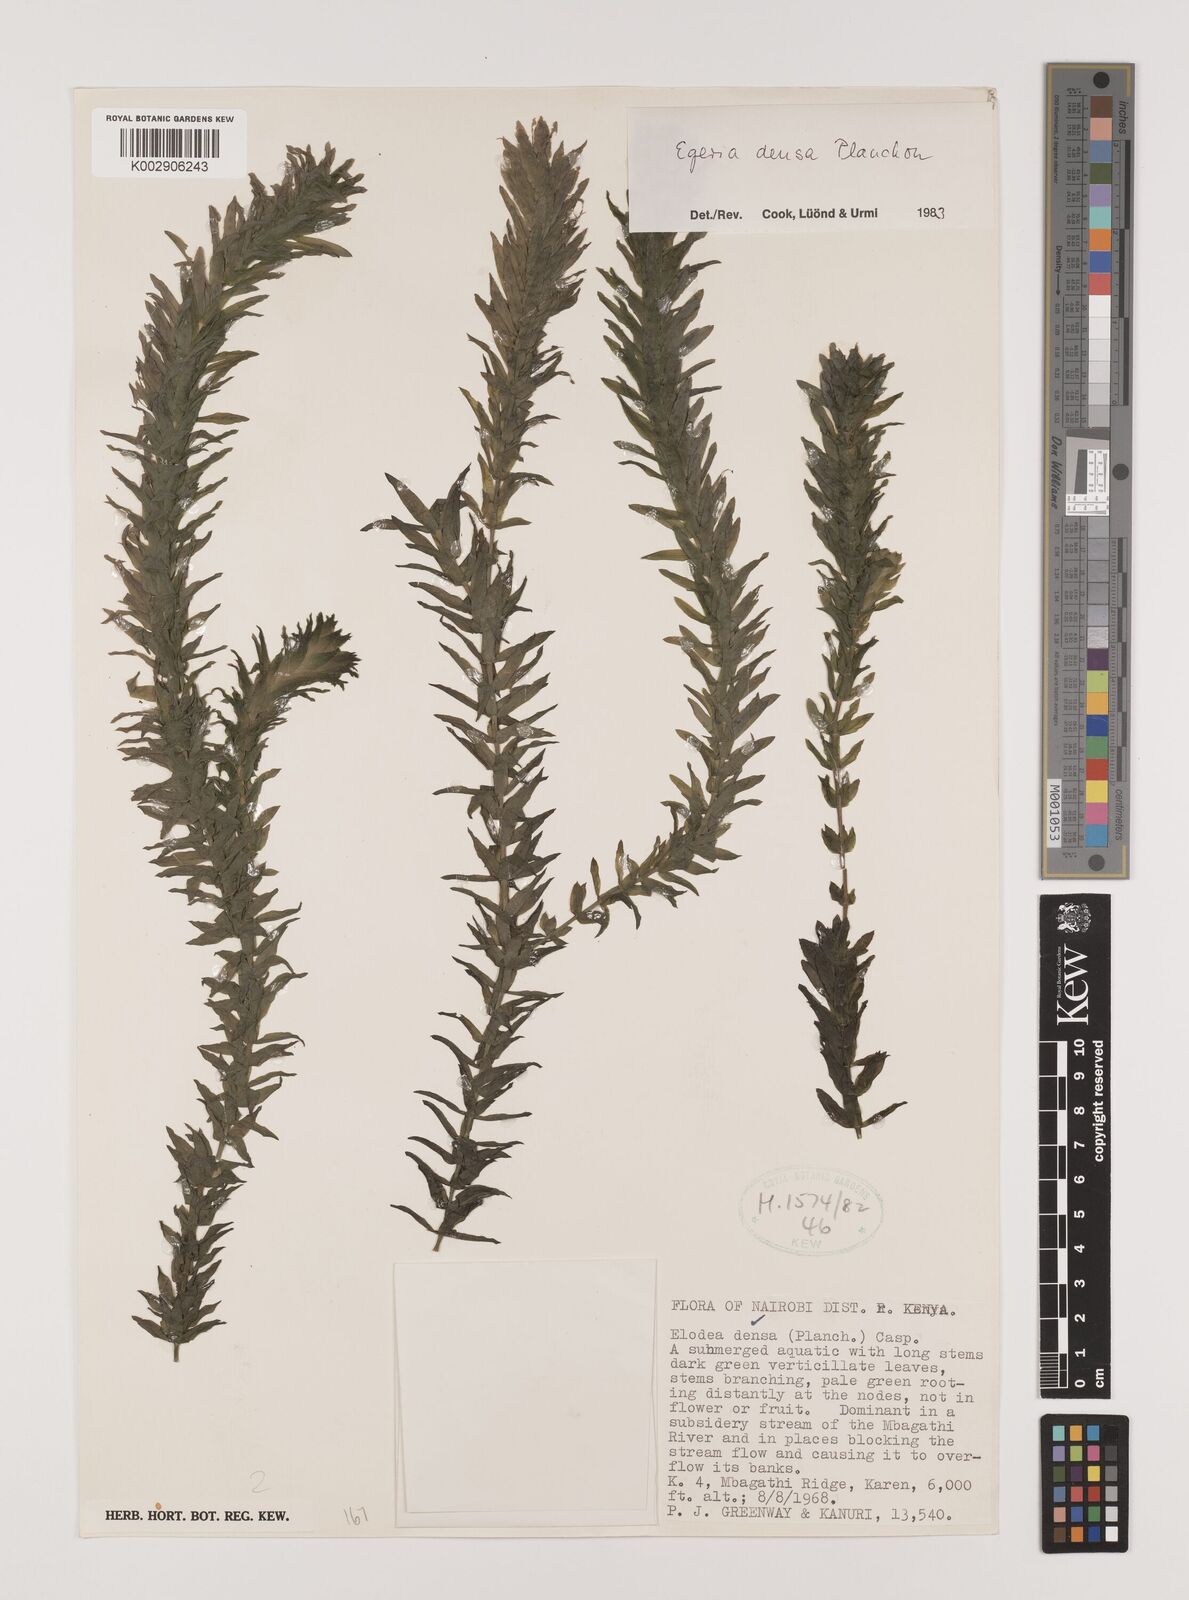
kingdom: Plantae
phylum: Tracheophyta
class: Liliopsida
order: Alismatales
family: Hydrocharitaceae
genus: Elodea
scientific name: Elodea densa
